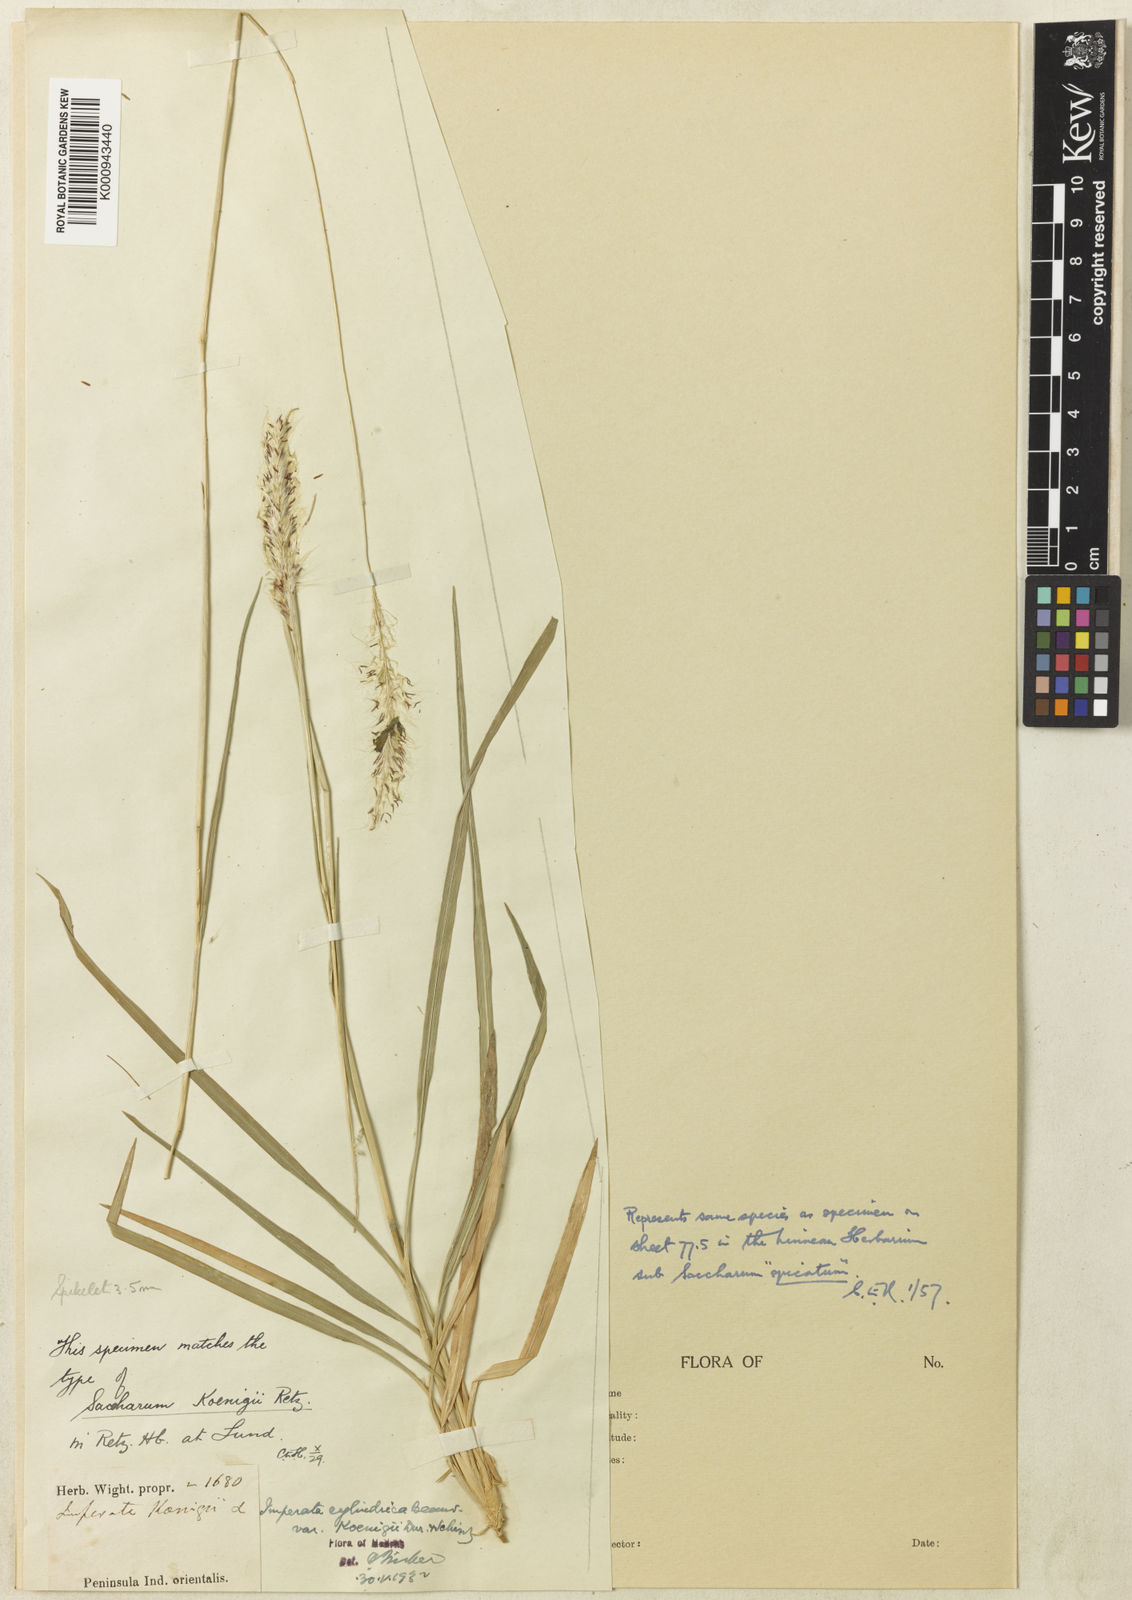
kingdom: Plantae
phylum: Tracheophyta
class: Liliopsida
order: Poales
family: Poaceae
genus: Imperata
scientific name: Imperata cylindrica
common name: Cogongrass
